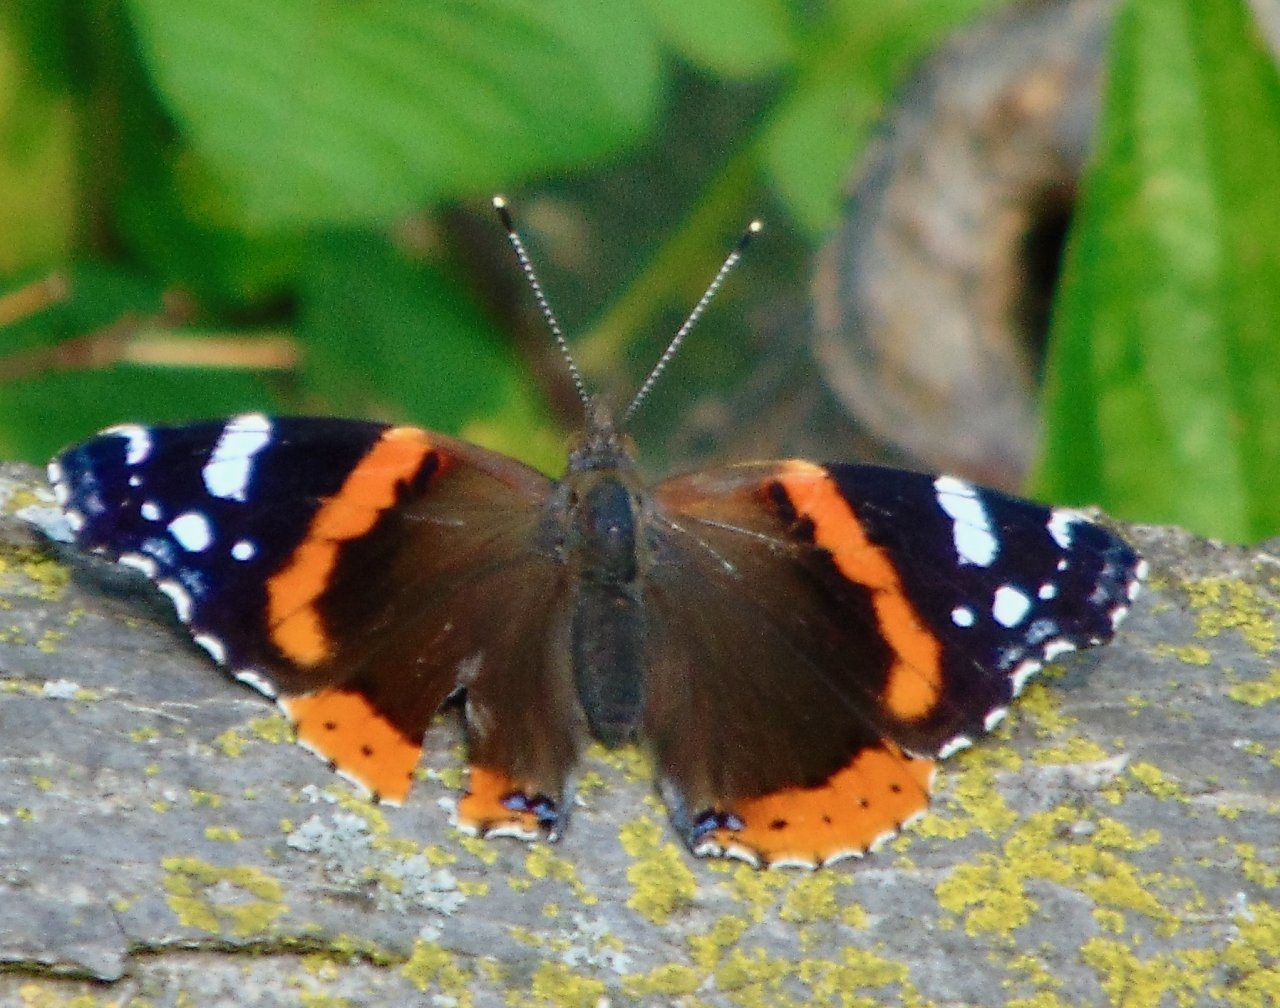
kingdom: Animalia
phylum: Arthropoda
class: Insecta
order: Lepidoptera
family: Nymphalidae
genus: Vanessa
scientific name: Vanessa atalanta
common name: Red Admiral
